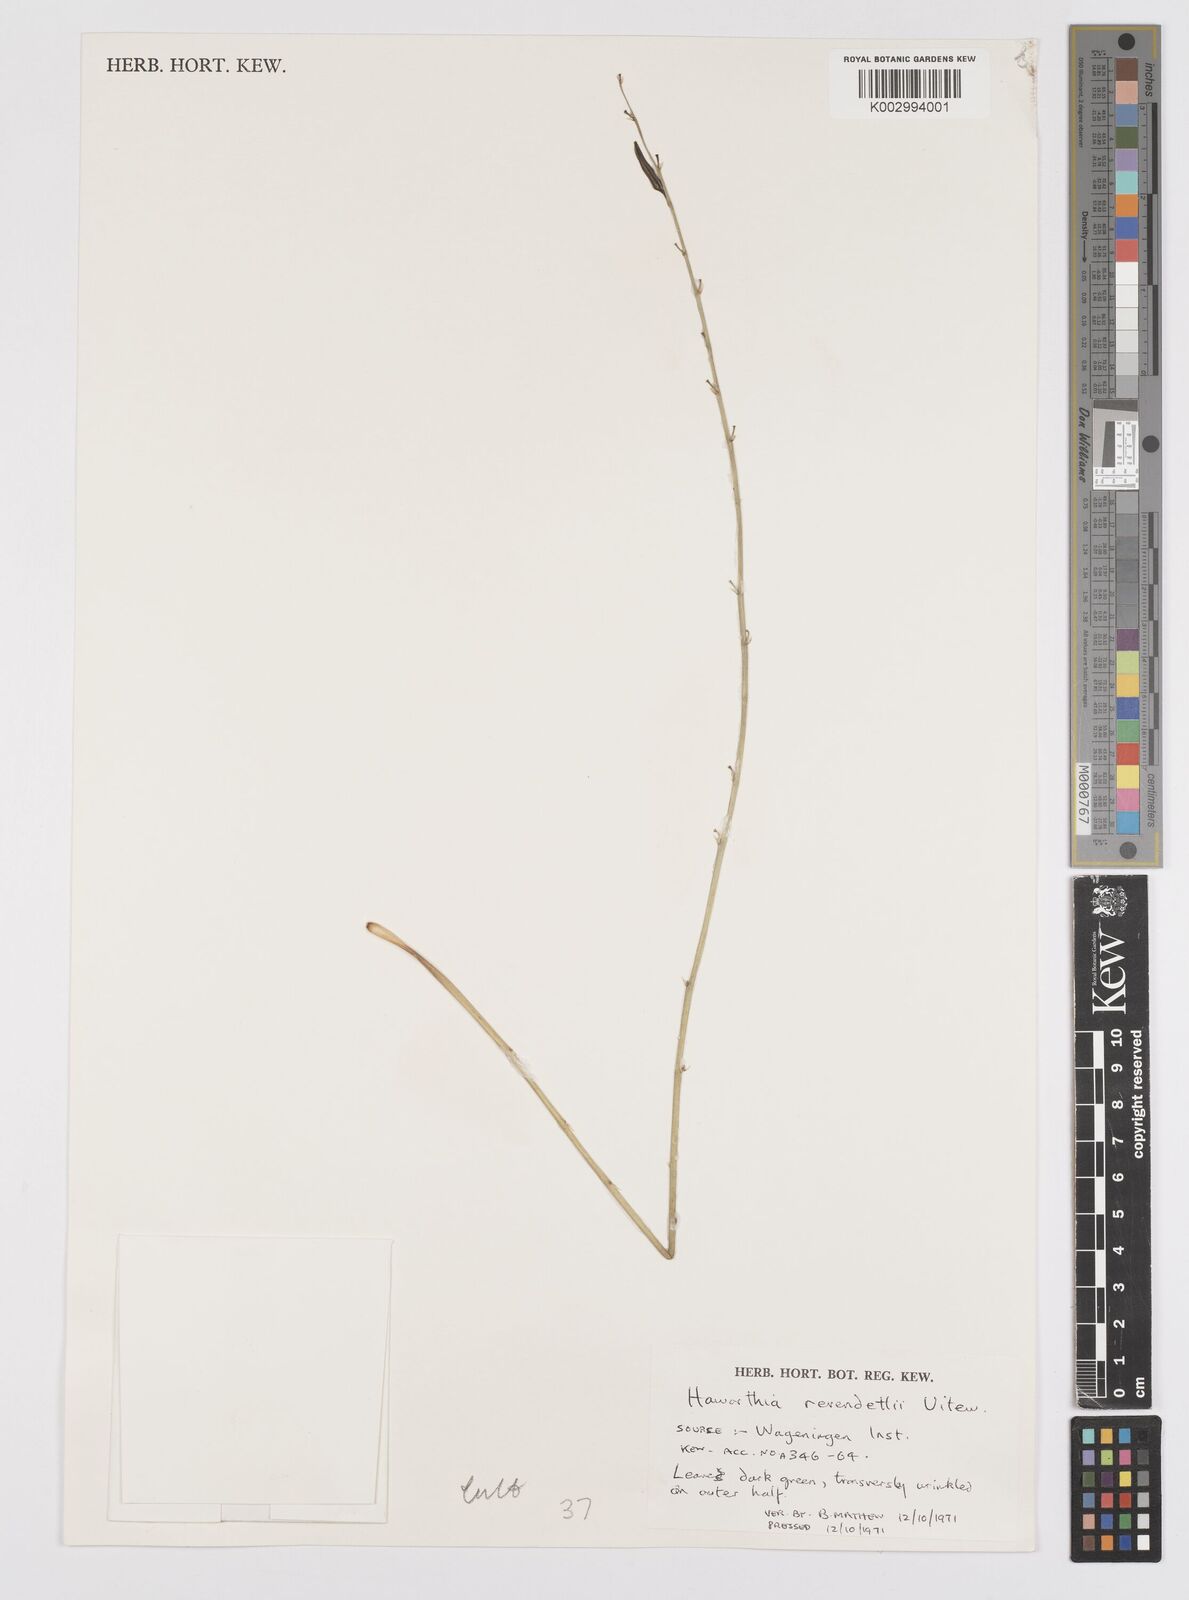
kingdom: Plantae
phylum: Tracheophyta
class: Liliopsida
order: Asparagales
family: Asphodelaceae
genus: Haworthiopsis
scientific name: Haworthiopsis revendettii
